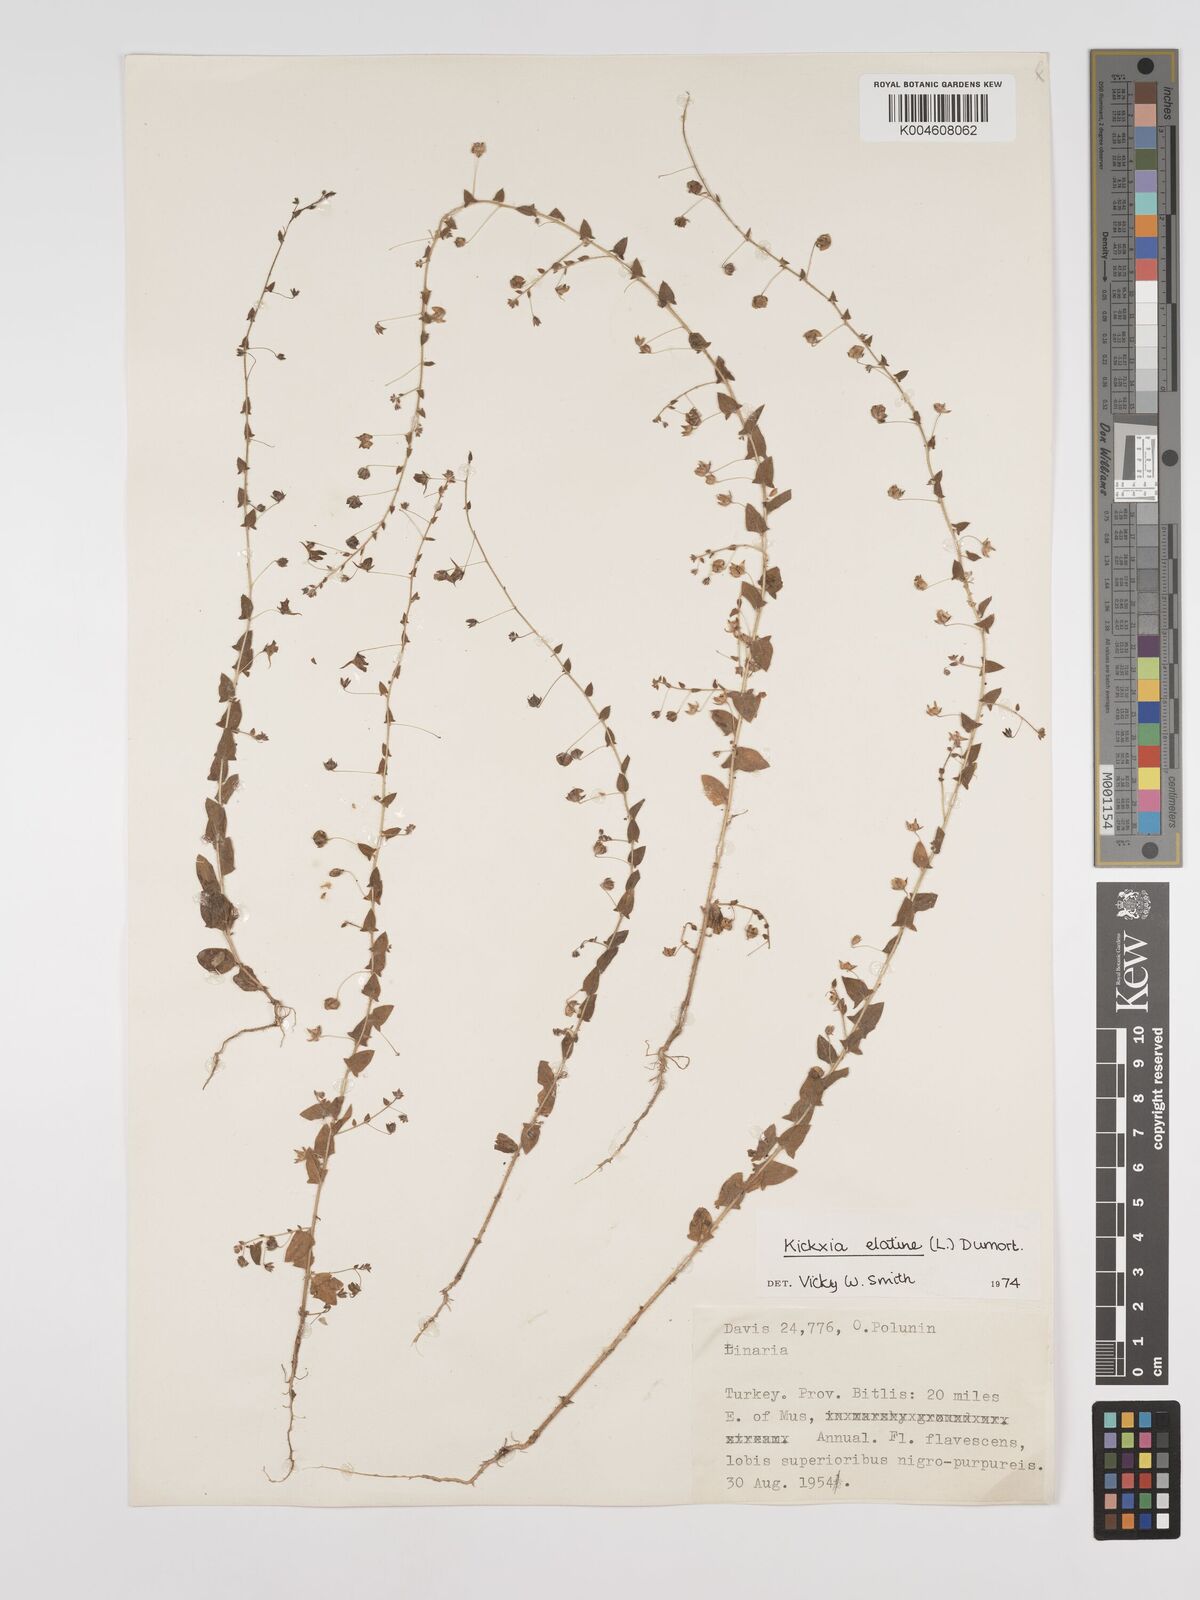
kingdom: Plantae
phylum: Tracheophyta
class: Magnoliopsida
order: Lamiales
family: Plantaginaceae
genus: Kickxia
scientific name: Kickxia elatine
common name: Sharp-leaved fluellen
